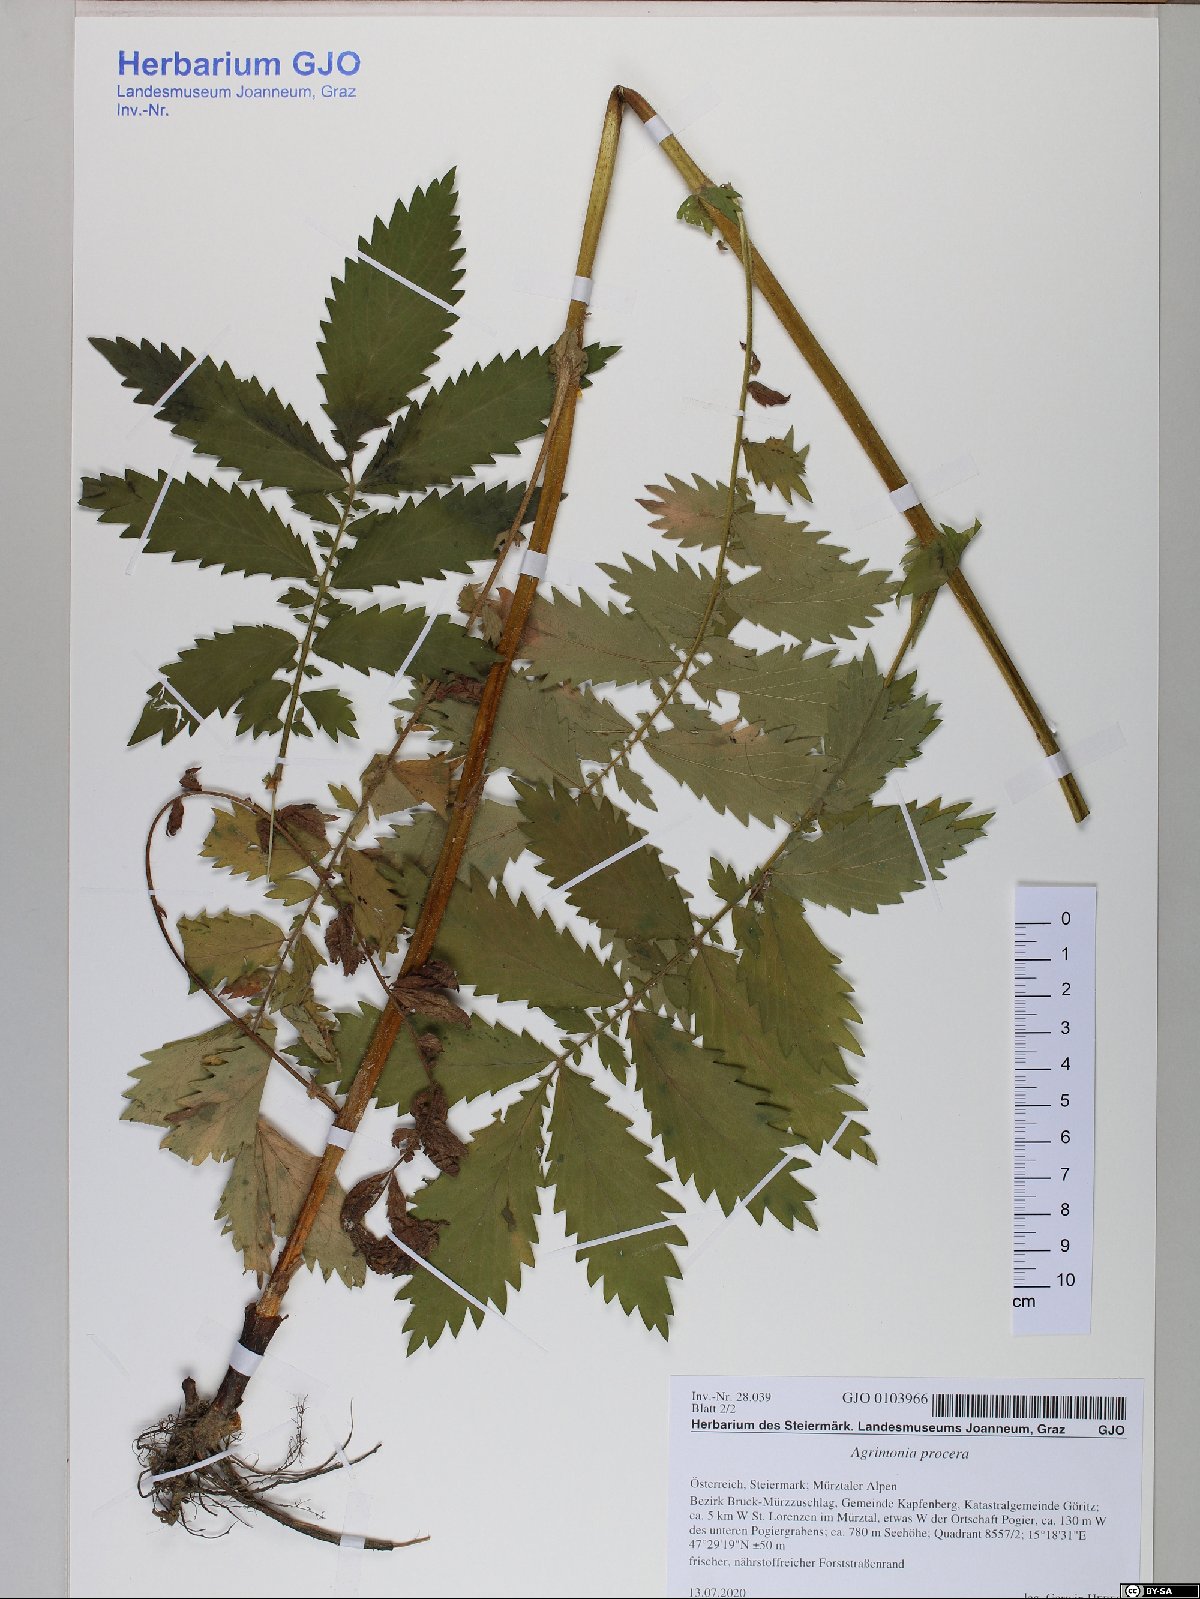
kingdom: Plantae
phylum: Tracheophyta
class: Magnoliopsida
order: Rosales
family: Rosaceae
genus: Agrimonia
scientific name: Agrimonia procera
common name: Fragrant agrimony
